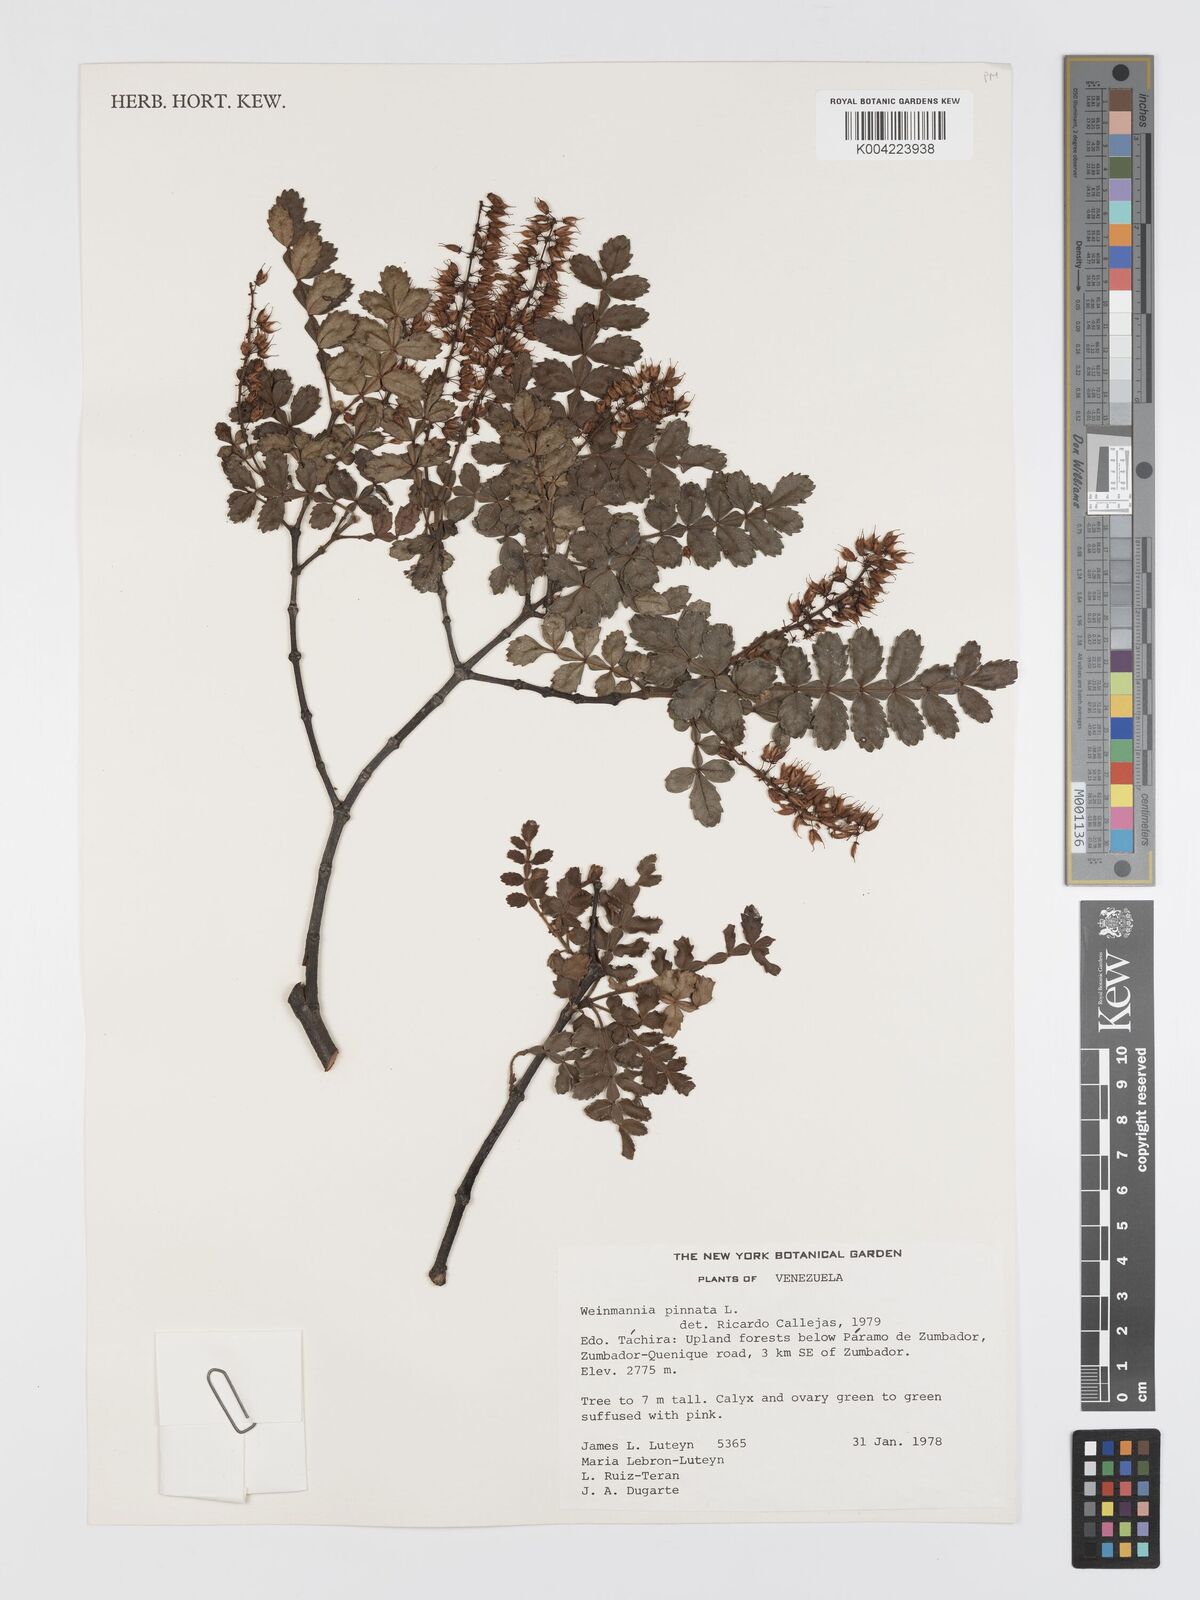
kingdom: Plantae
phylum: Tracheophyta
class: Magnoliopsida
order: Oxalidales
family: Cunoniaceae
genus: Weinmannia
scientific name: Weinmannia pinnata
